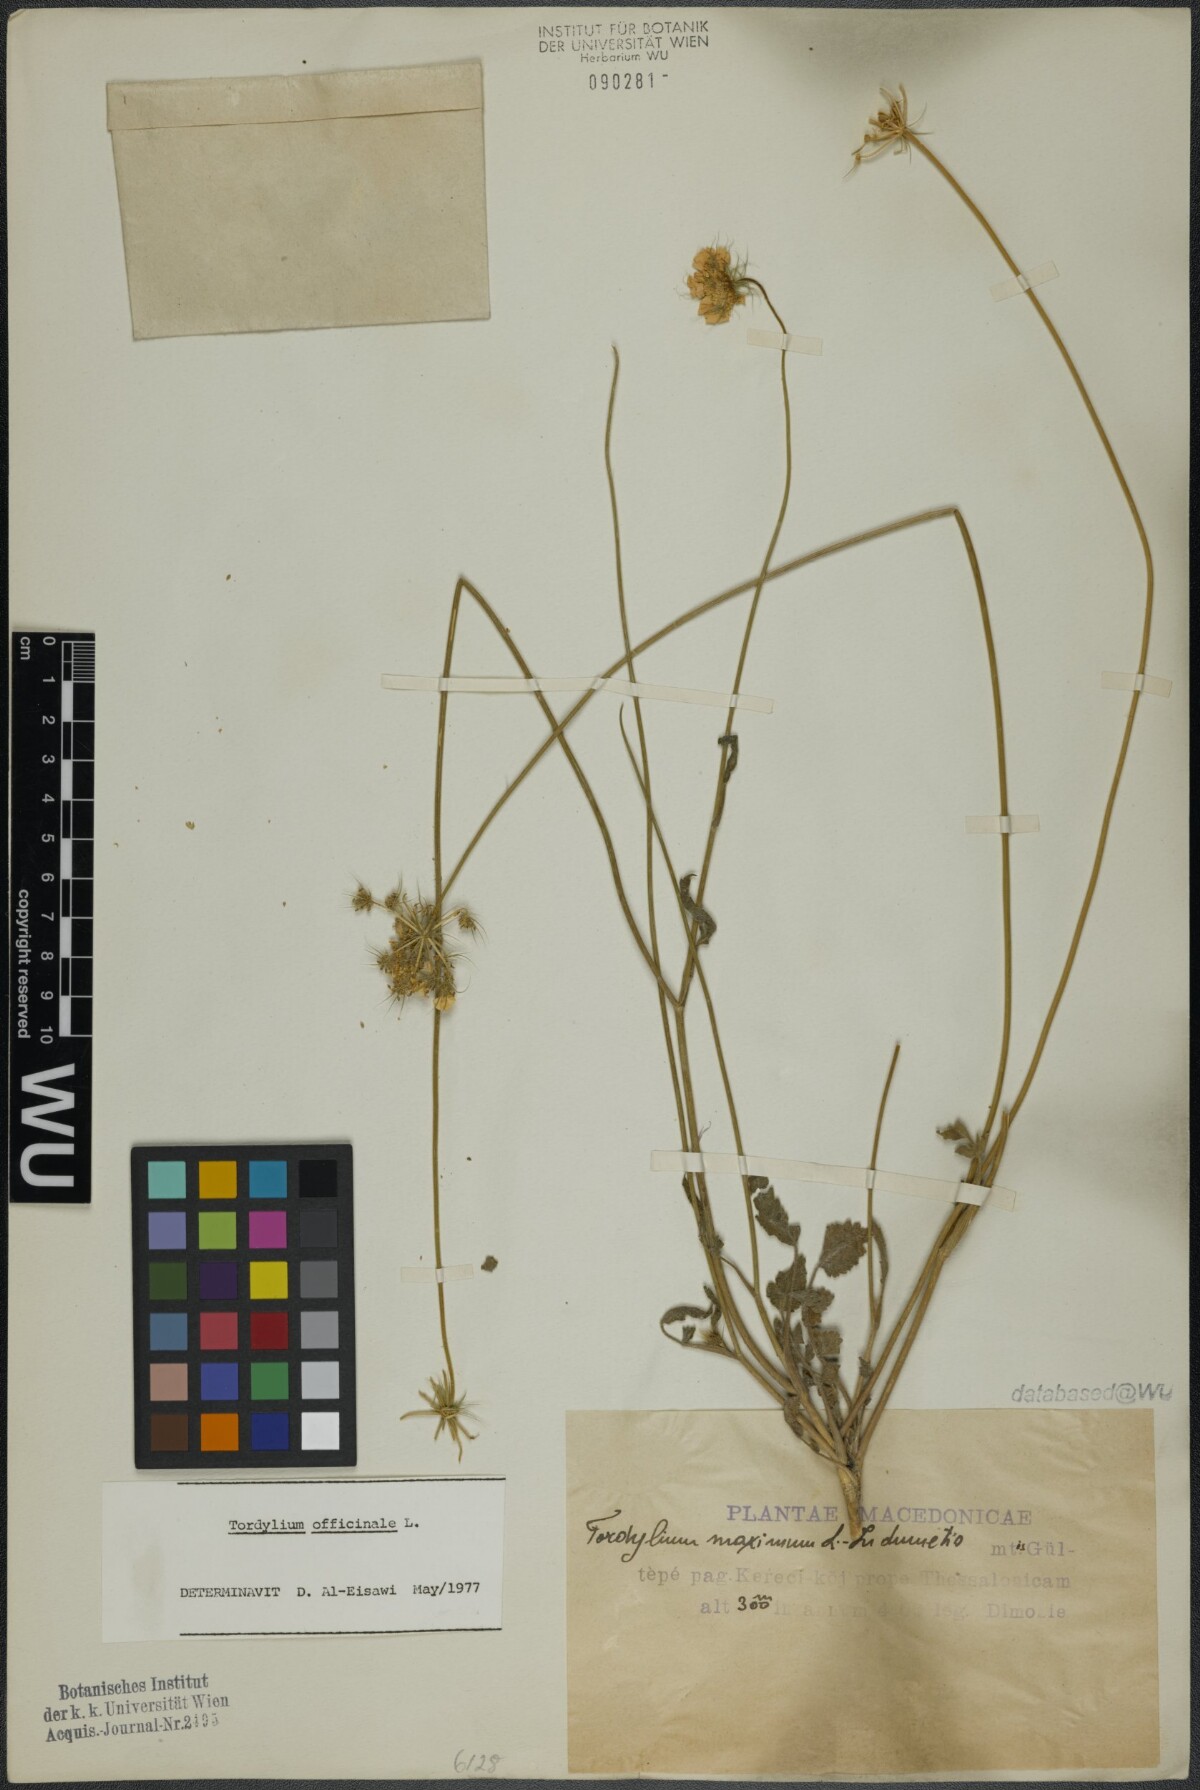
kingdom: Plantae
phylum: Tracheophyta
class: Magnoliopsida
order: Apiales
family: Apiaceae
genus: Tordylium
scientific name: Tordylium officinale
